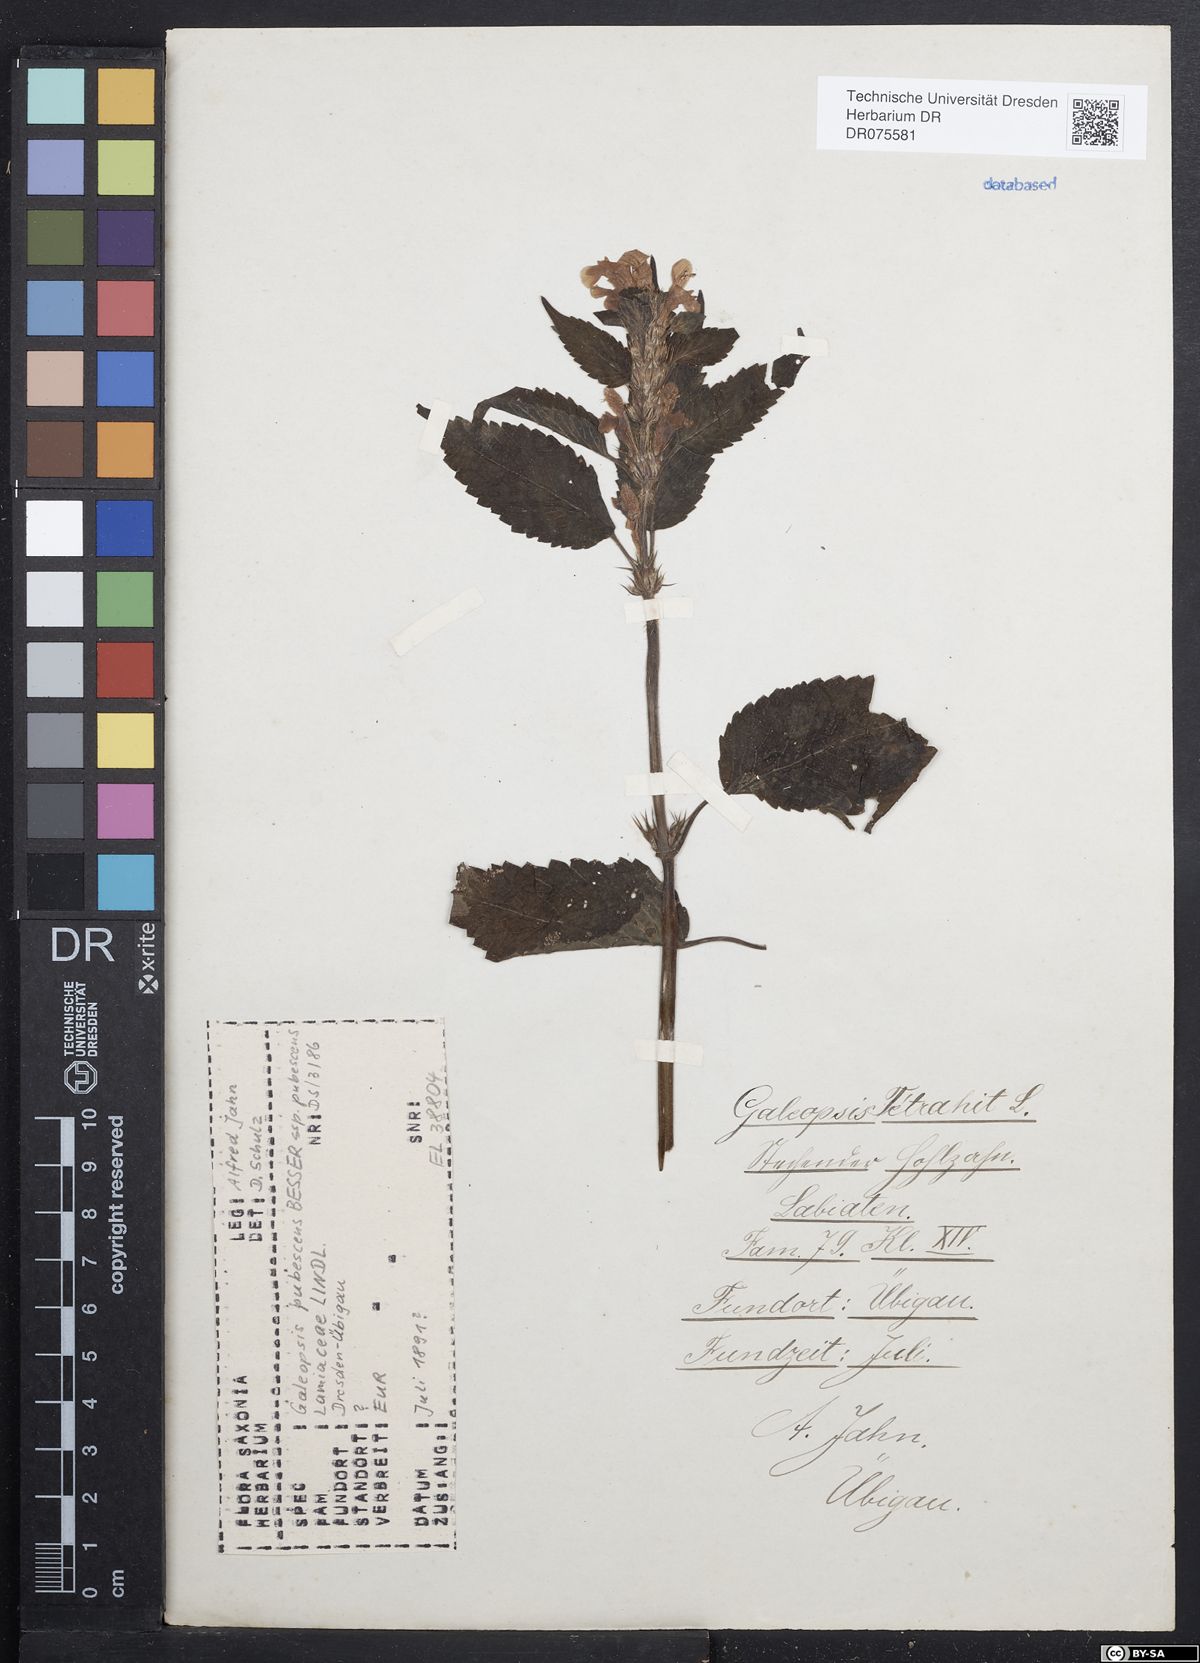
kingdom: Plantae
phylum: Tracheophyta
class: Magnoliopsida
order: Lamiales
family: Lamiaceae
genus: Galeopsis
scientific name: Galeopsis pubescens
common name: Downy hemp-nettle
